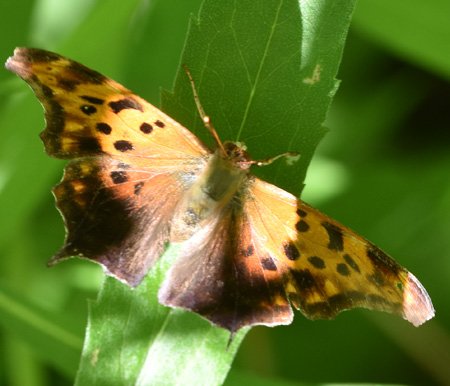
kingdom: Animalia
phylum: Arthropoda
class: Insecta
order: Lepidoptera
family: Nymphalidae
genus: Polygonia
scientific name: Polygonia comma
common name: Eastern Comma
